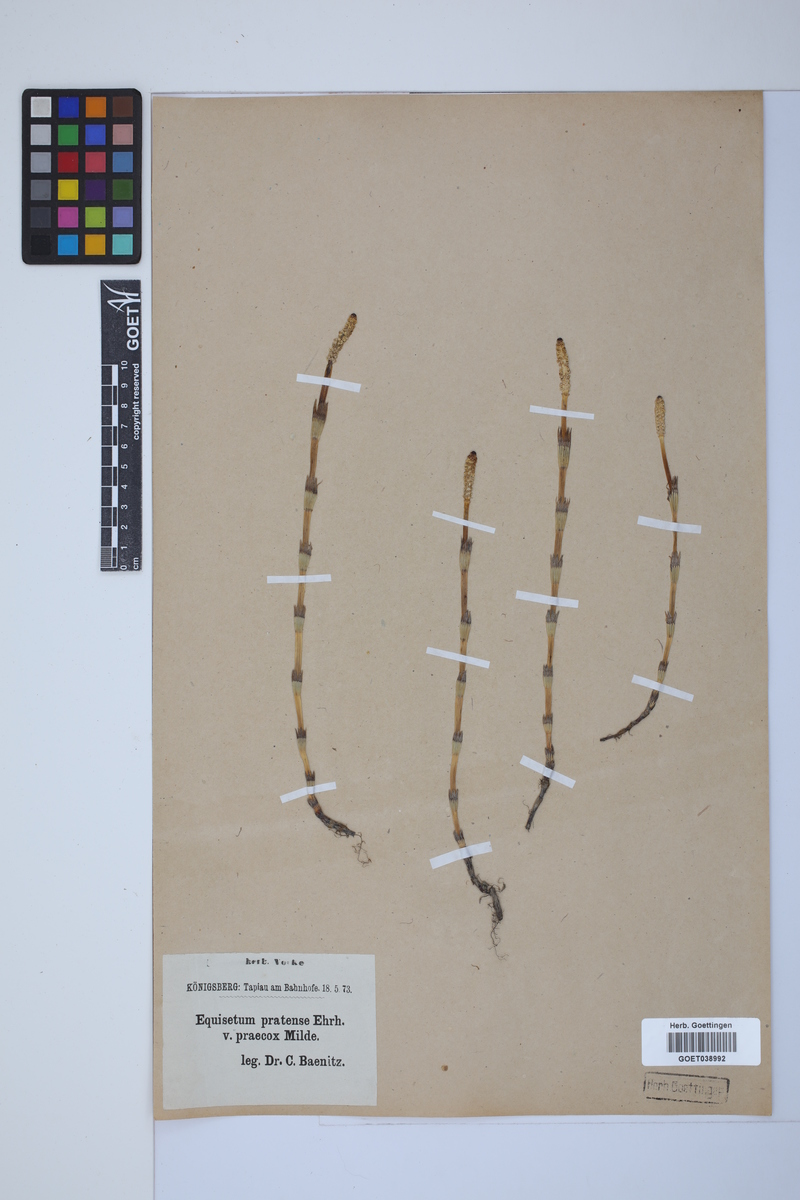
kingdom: Plantae
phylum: Tracheophyta
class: Polypodiopsida
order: Equisetales
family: Equisetaceae
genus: Equisetum
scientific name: Equisetum pratense
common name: Meadow horsetail
